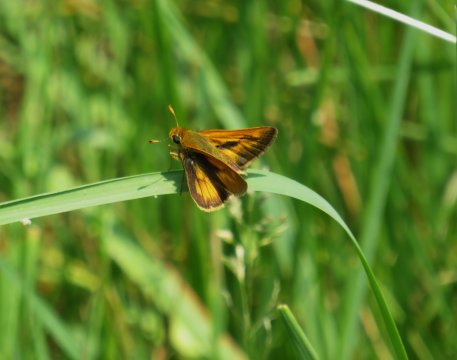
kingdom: Animalia
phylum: Arthropoda
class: Insecta
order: Lepidoptera
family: Hesperiidae
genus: Polites
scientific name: Polites
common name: Long Dash Skipper
